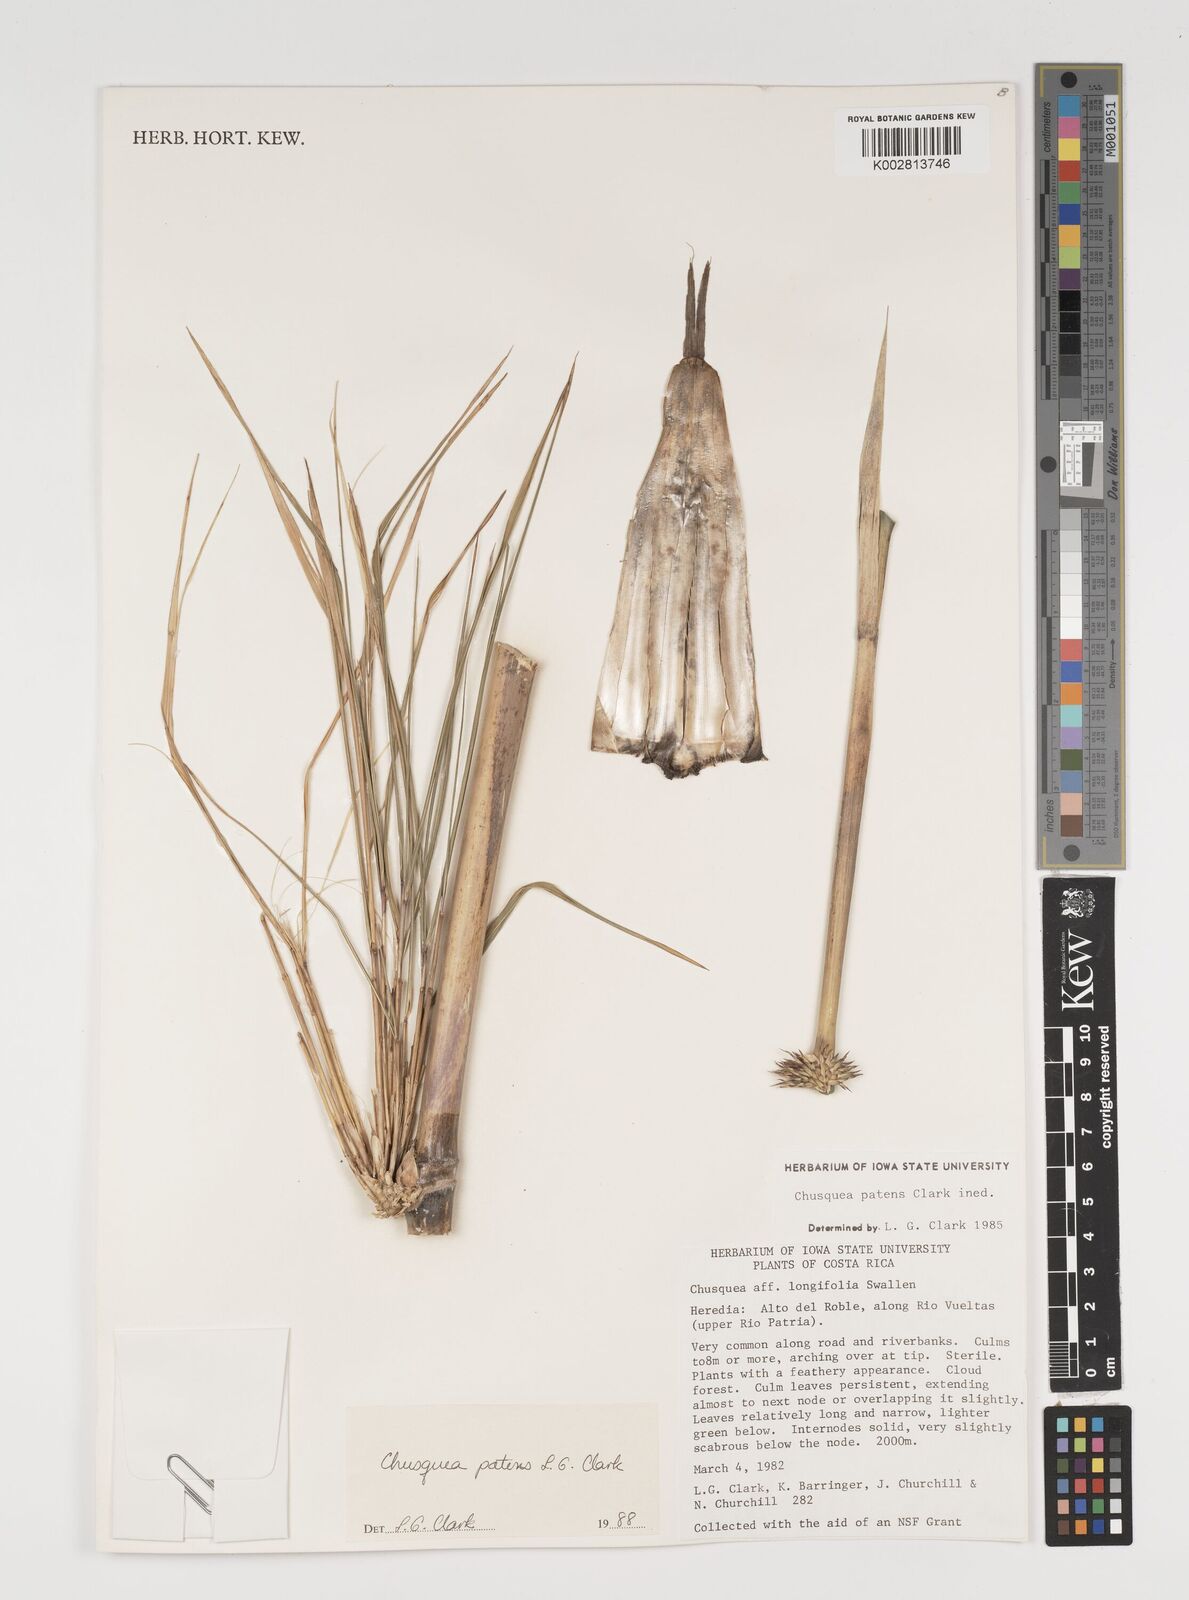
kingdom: Plantae
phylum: Tracheophyta
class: Liliopsida
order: Poales
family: Poaceae
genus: Chusquea
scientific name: Chusquea patens
